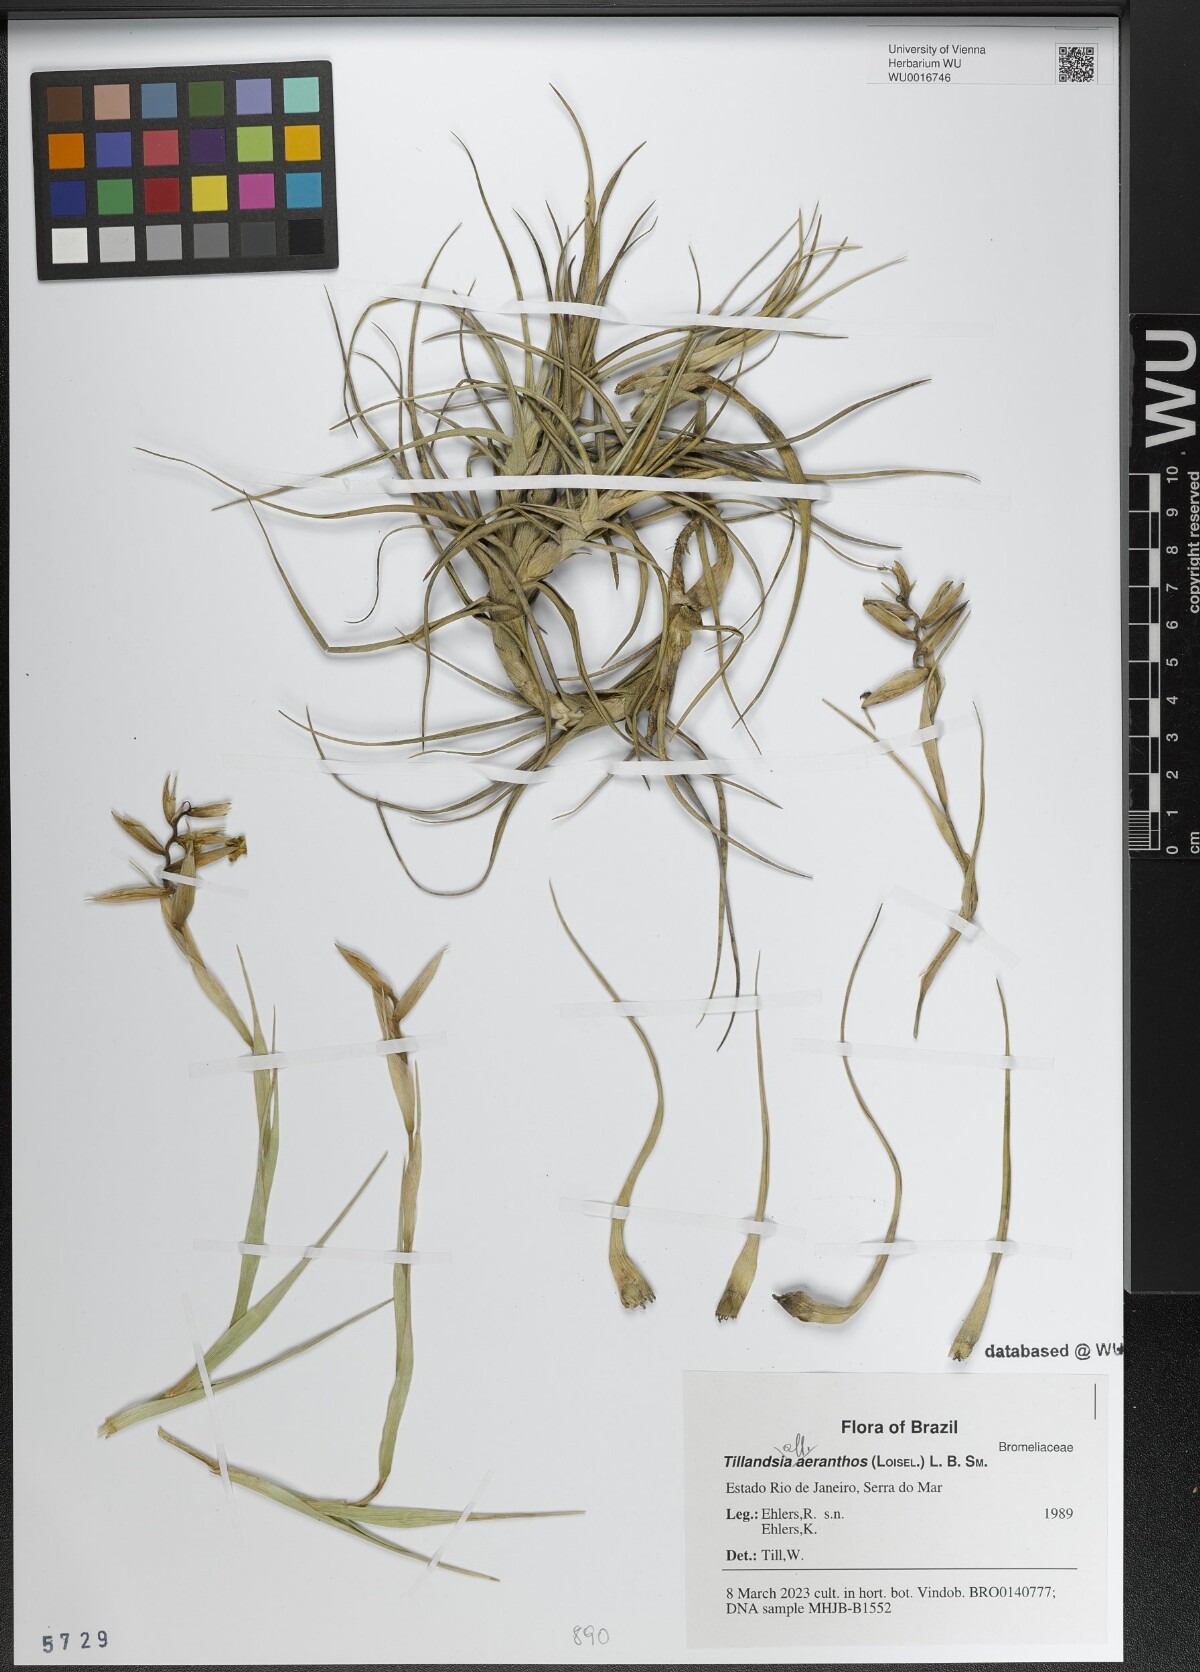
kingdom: Plantae
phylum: Tracheophyta
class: Liliopsida
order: Poales
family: Bromeliaceae
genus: Tillandsia
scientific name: Tillandsia aeranthos
